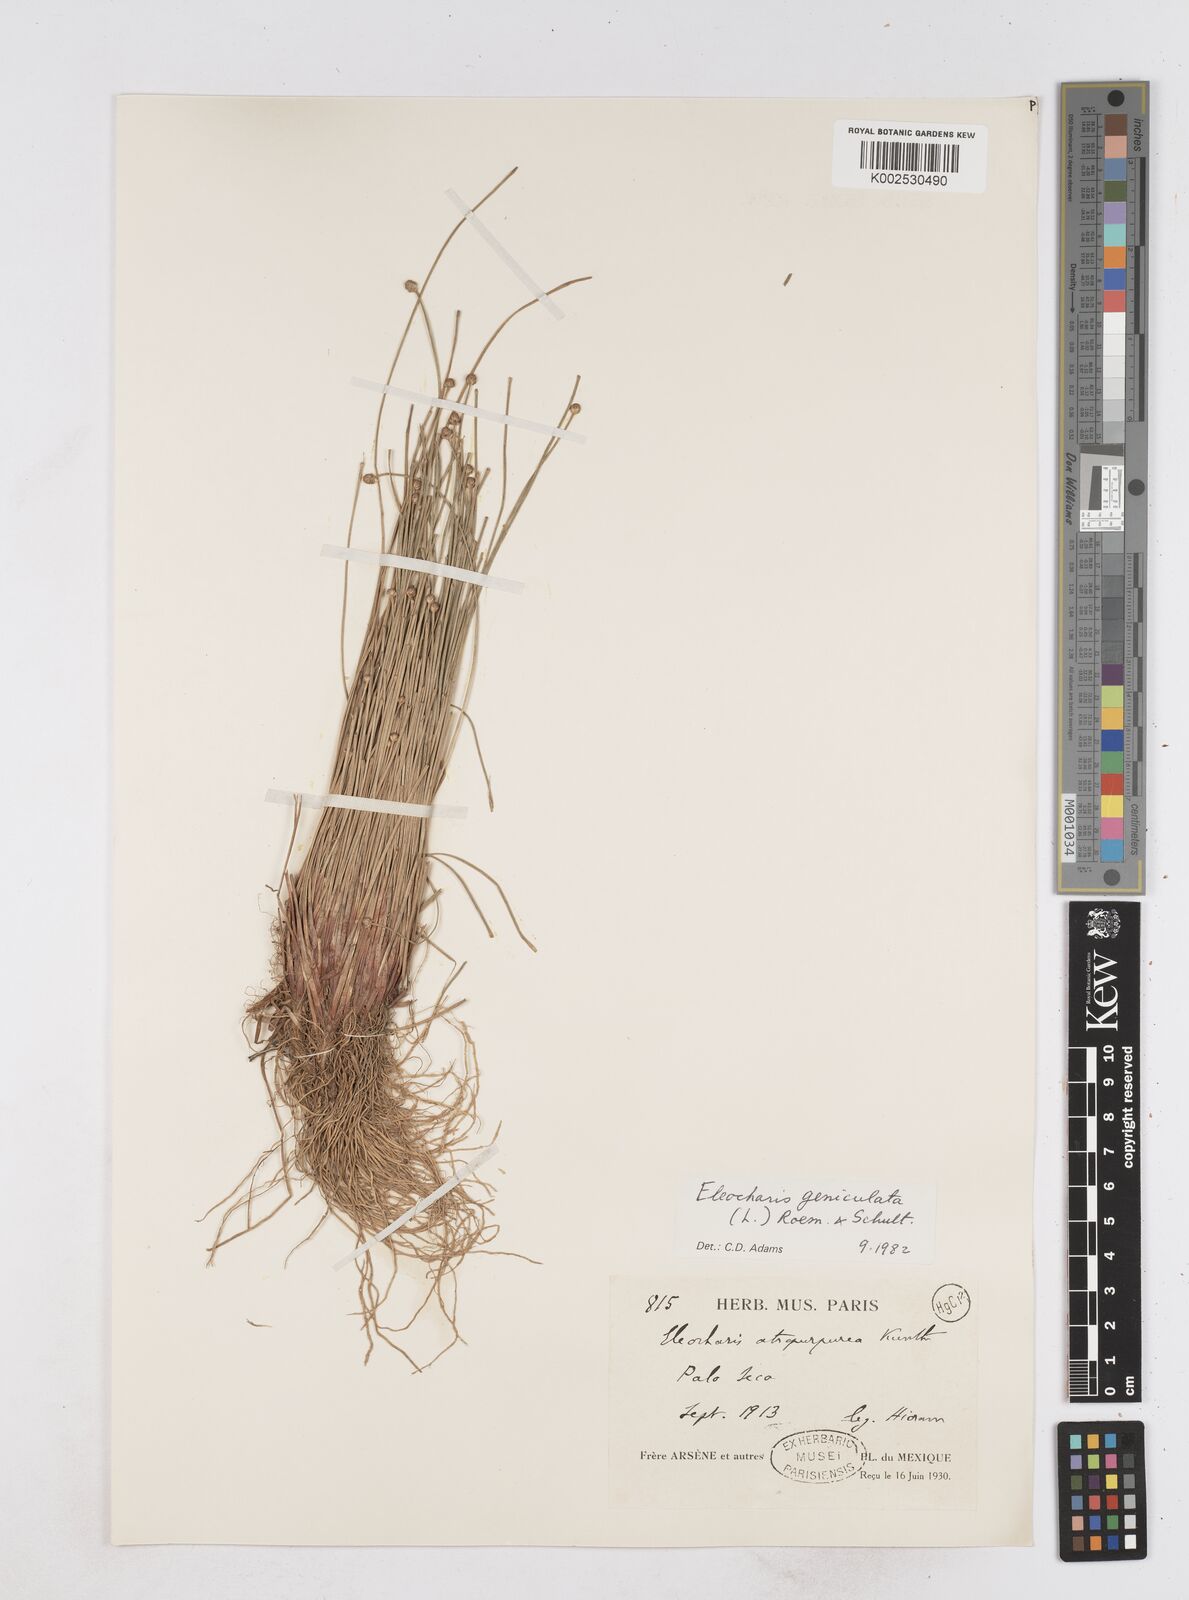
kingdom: Plantae
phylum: Tracheophyta
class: Liliopsida
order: Poales
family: Cyperaceae
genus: Eleocharis
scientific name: Eleocharis geniculata
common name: Canada spikesedge
